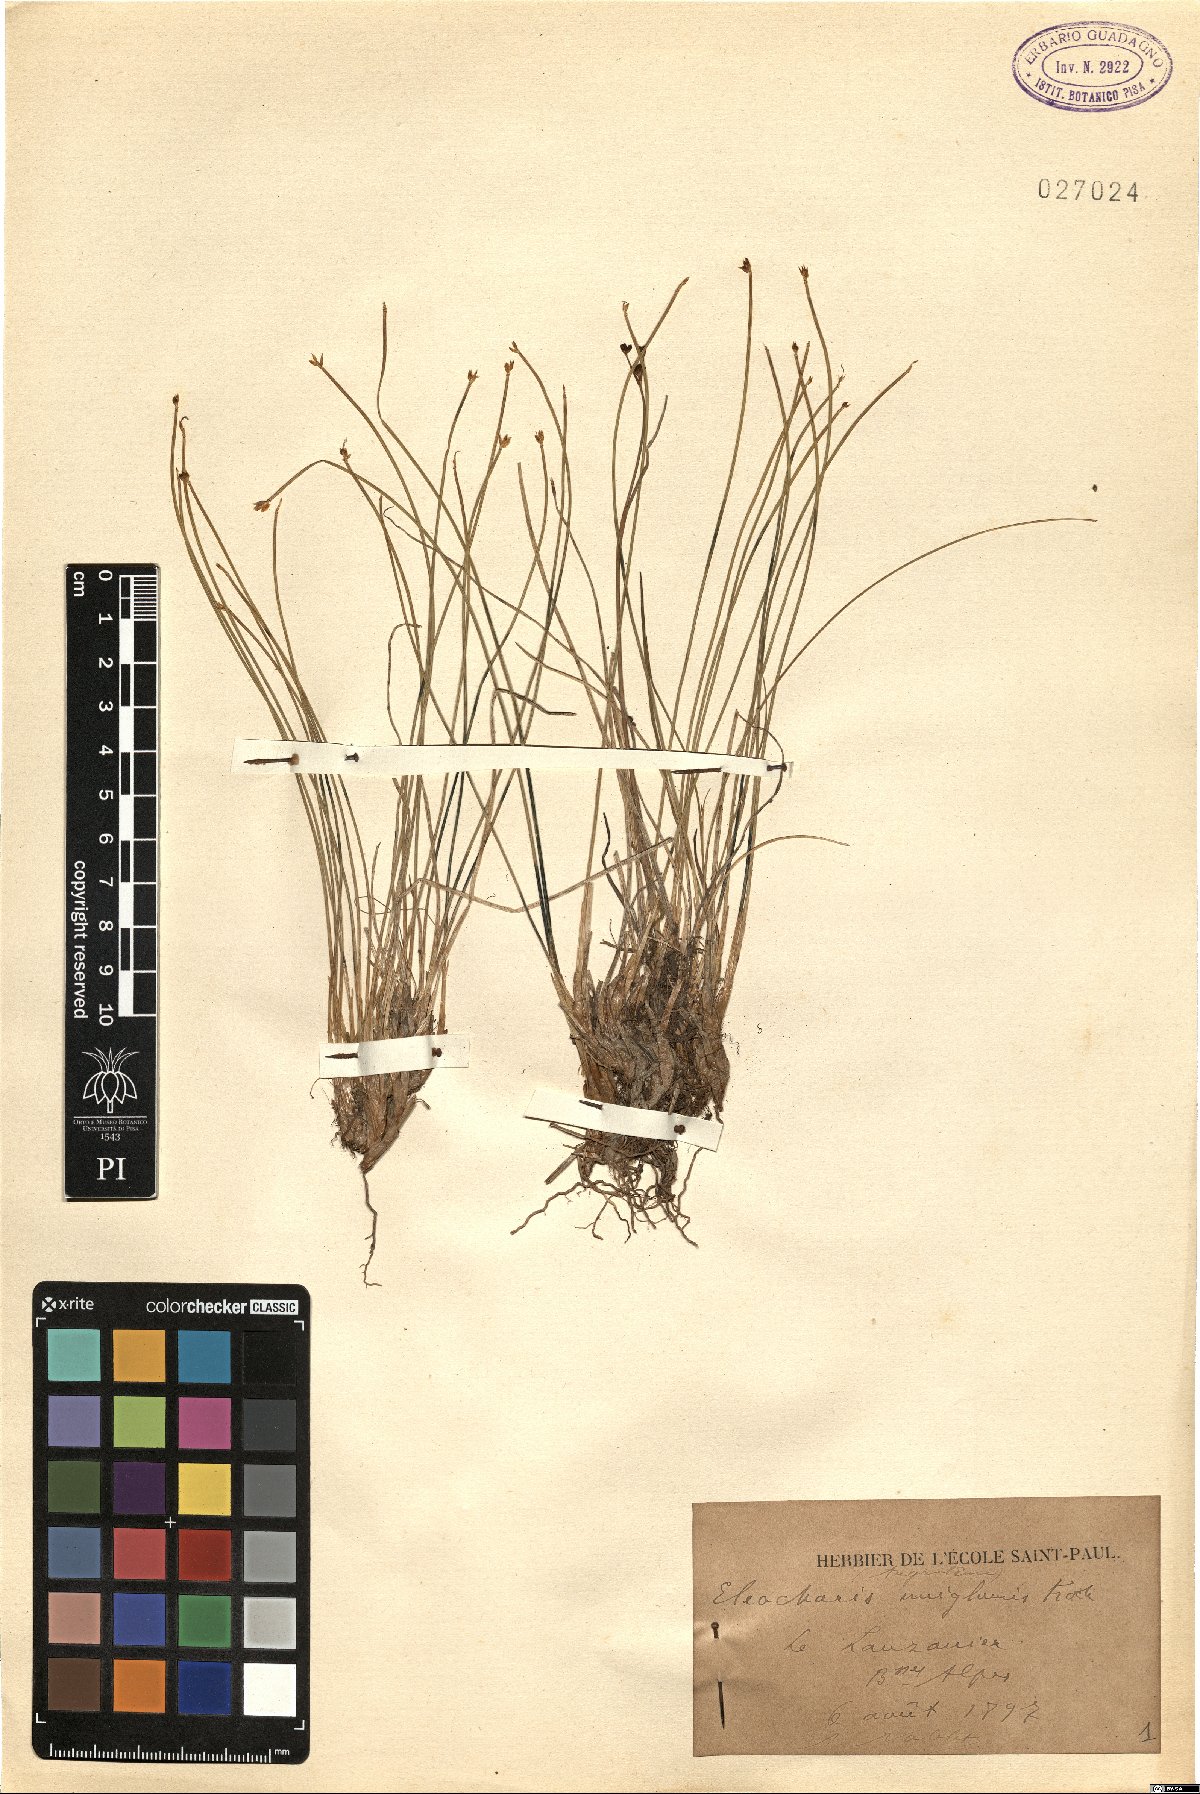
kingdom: Plantae
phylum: Tracheophyta
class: Liliopsida
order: Poales
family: Cyperaceae
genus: Eleocharis
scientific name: Eleocharis uniglumis
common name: Slender spike-rush
